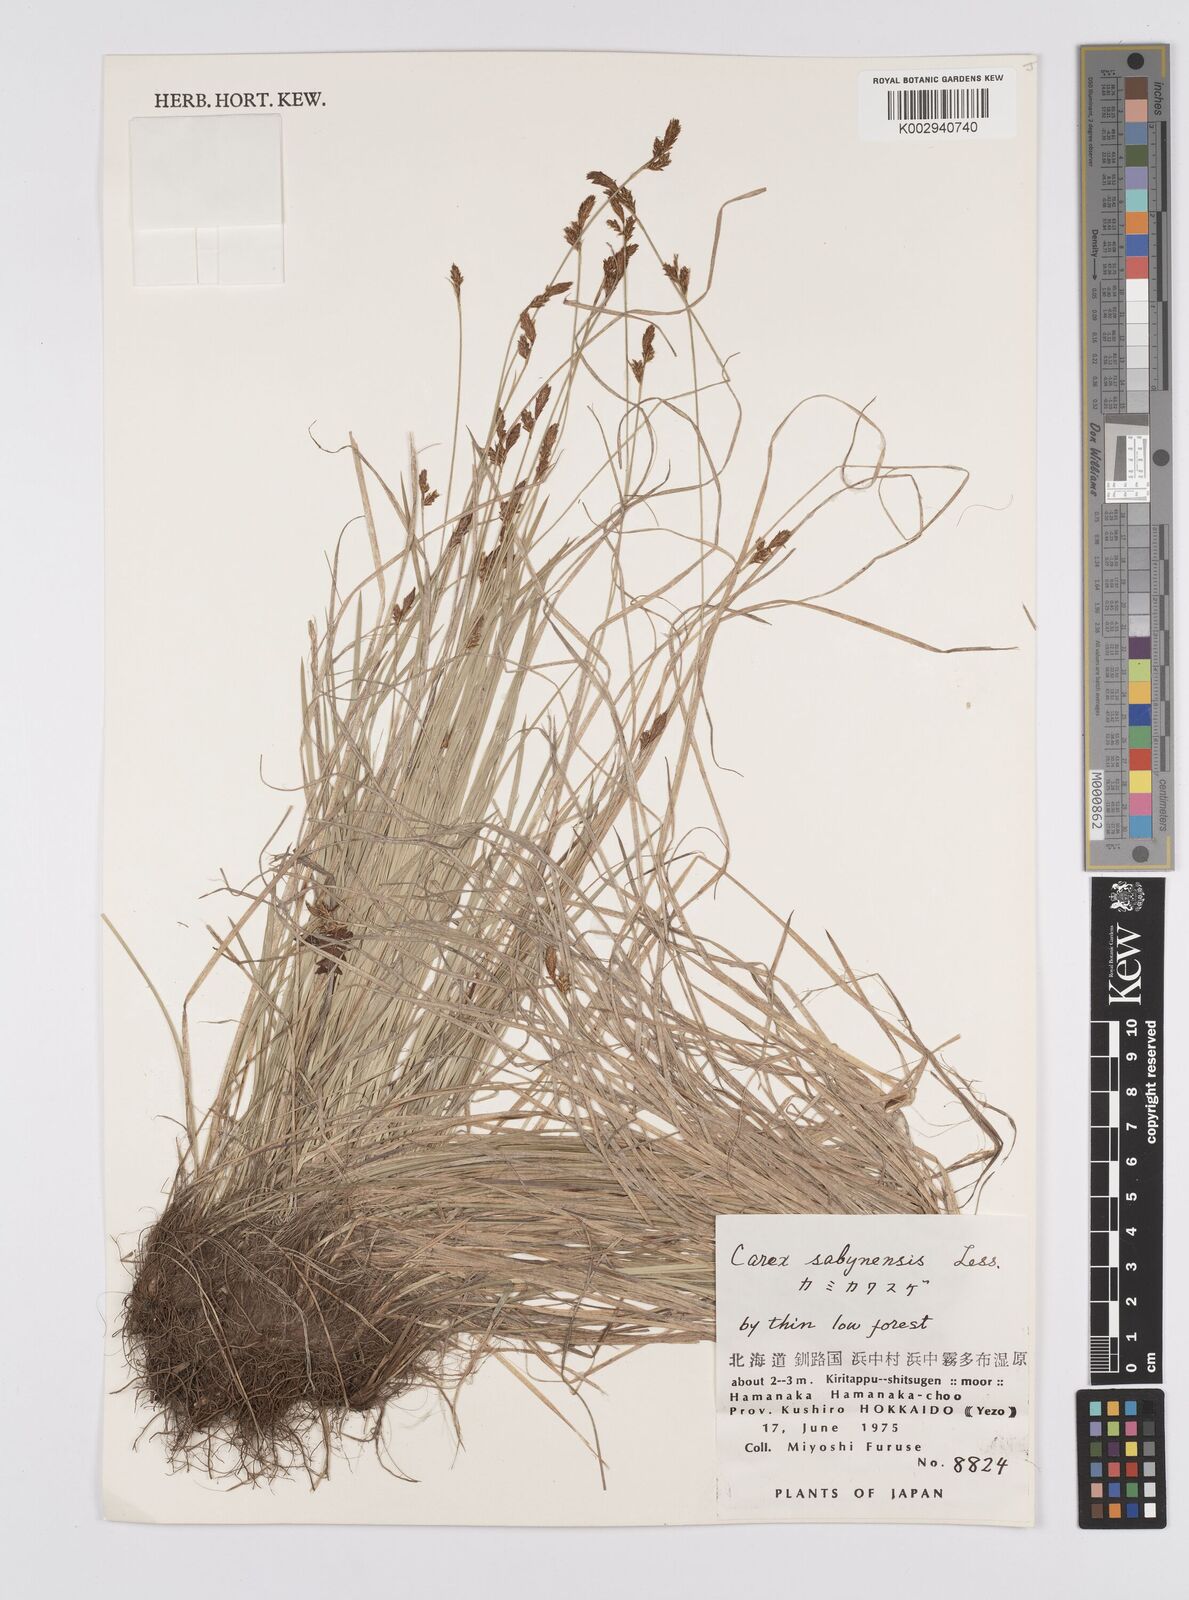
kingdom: Plantae
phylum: Tracheophyta
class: Liliopsida
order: Poales
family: Cyperaceae
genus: Carex
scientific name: Carex umbrosa
